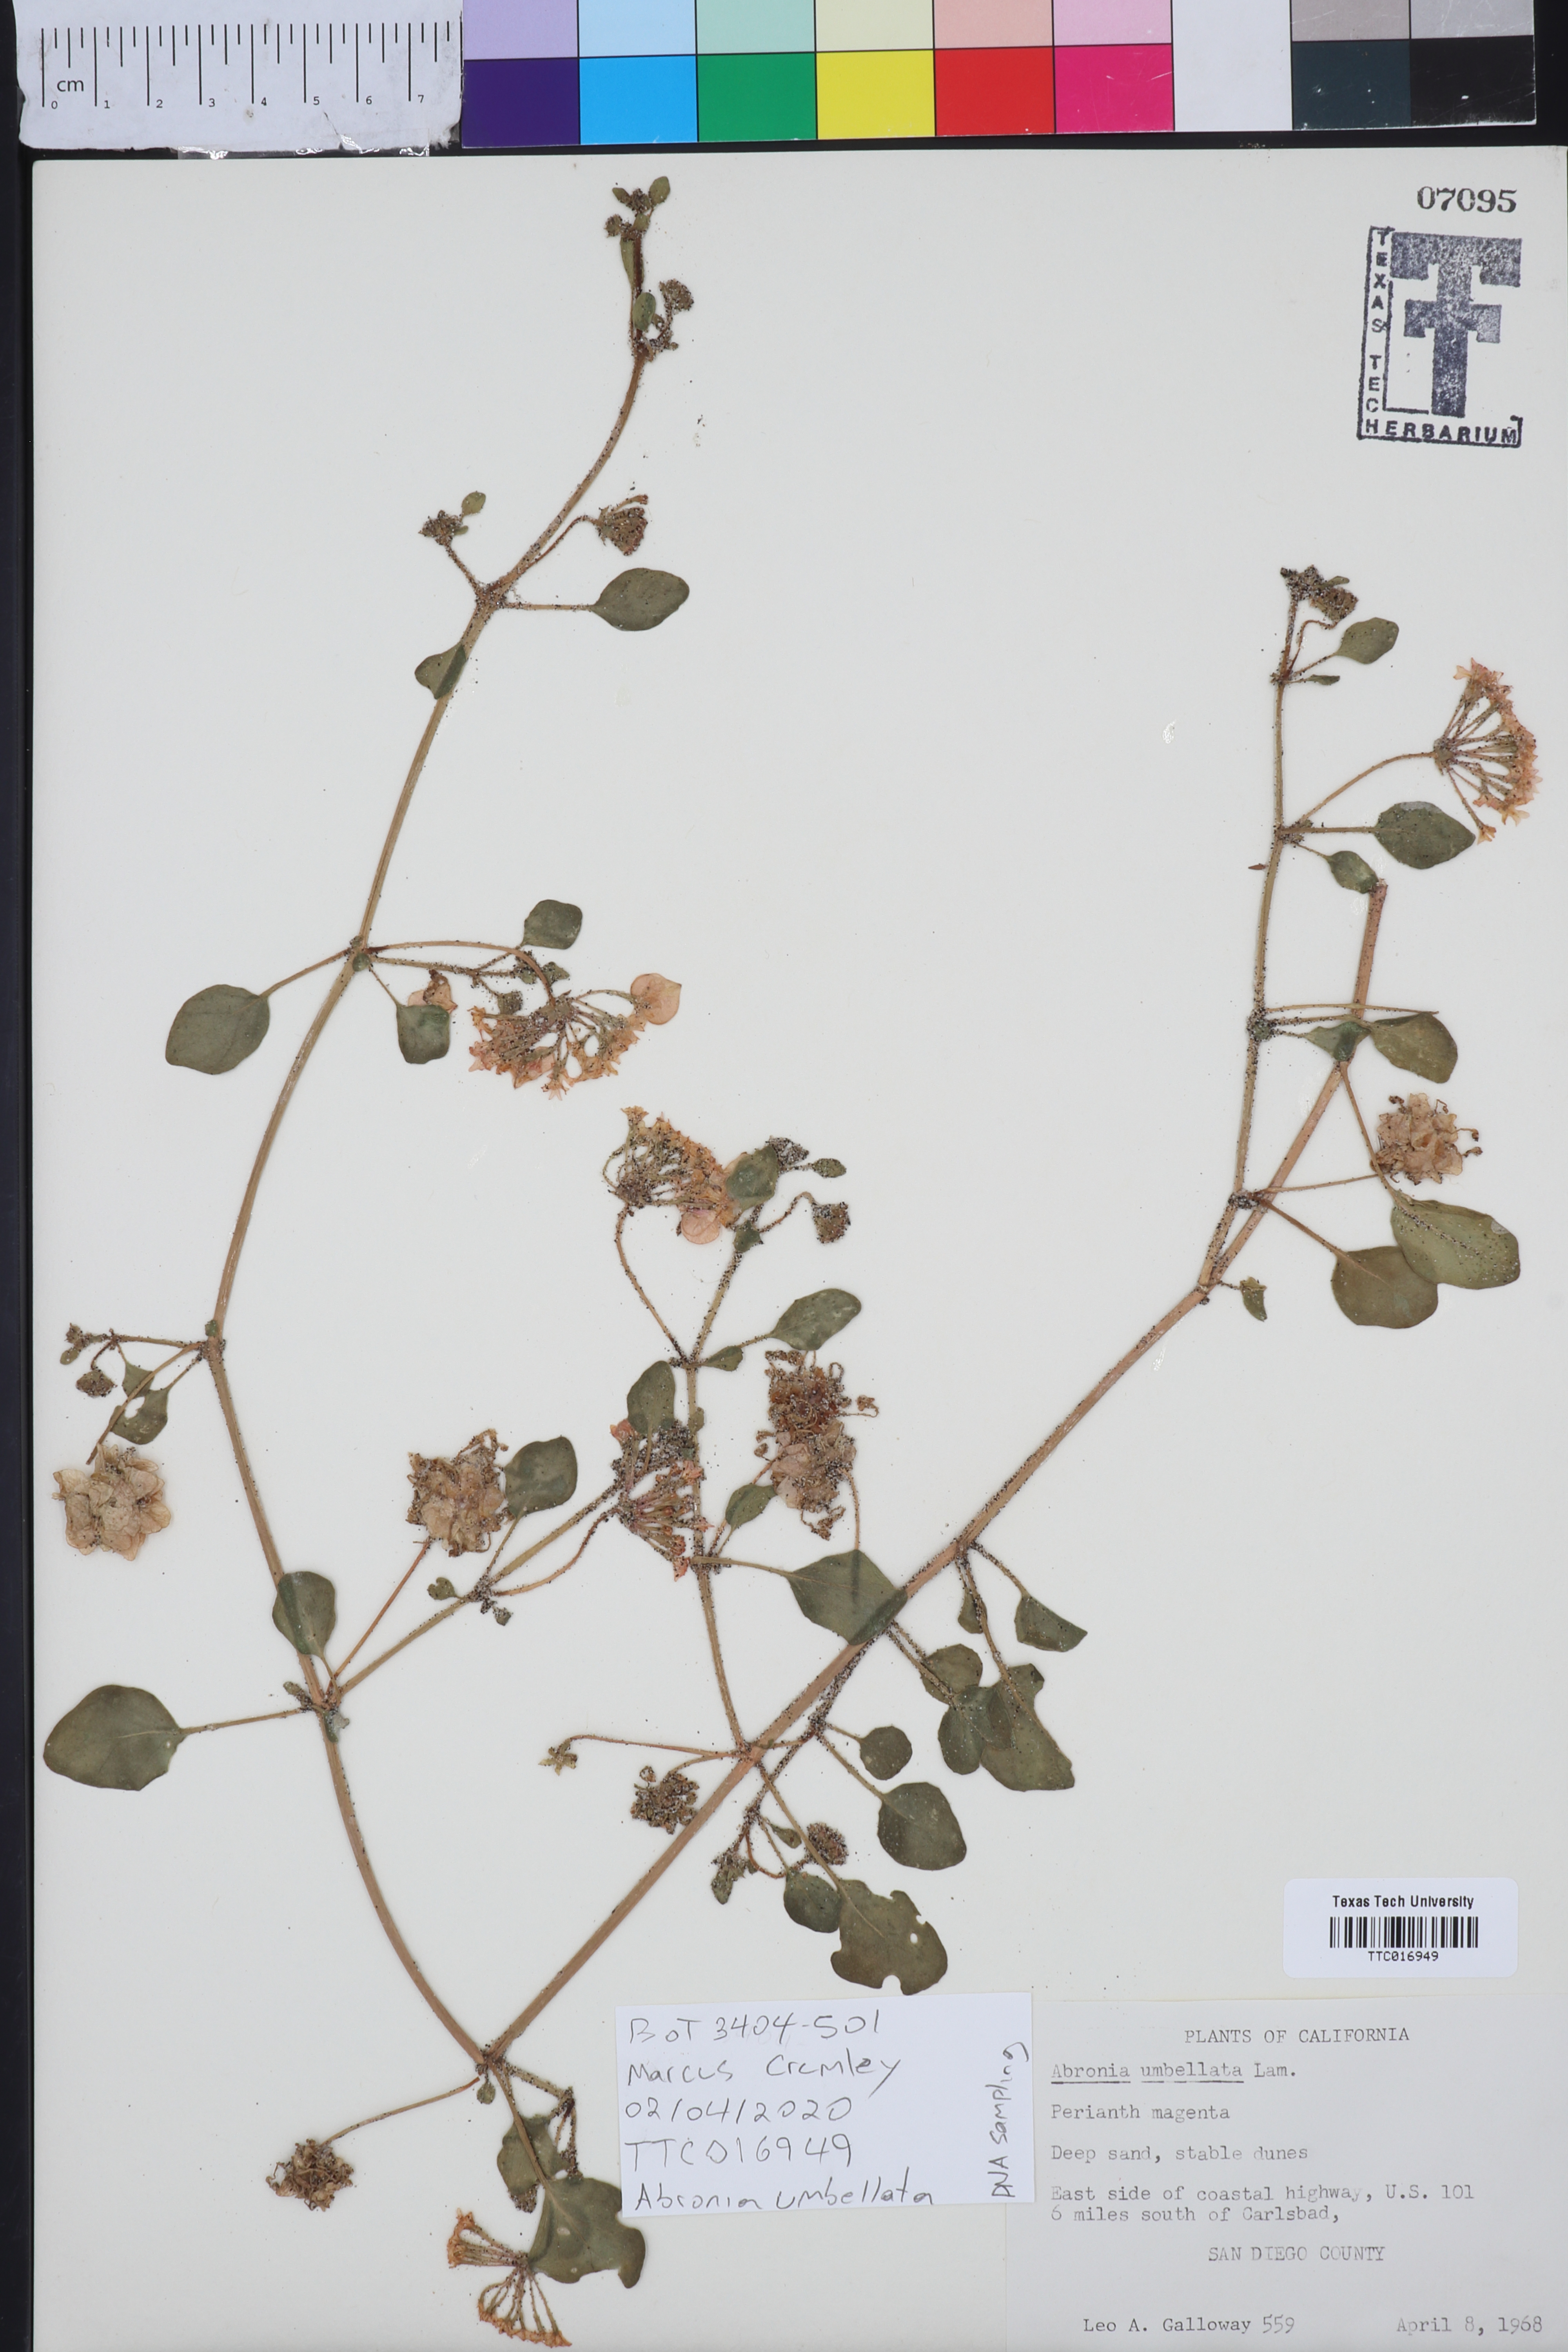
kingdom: Plantae
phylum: Tracheophyta
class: Magnoliopsida
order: Caryophyllales
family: Nyctaginaceae
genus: Abronia
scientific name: Abronia umbellata
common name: Sand-verbena
